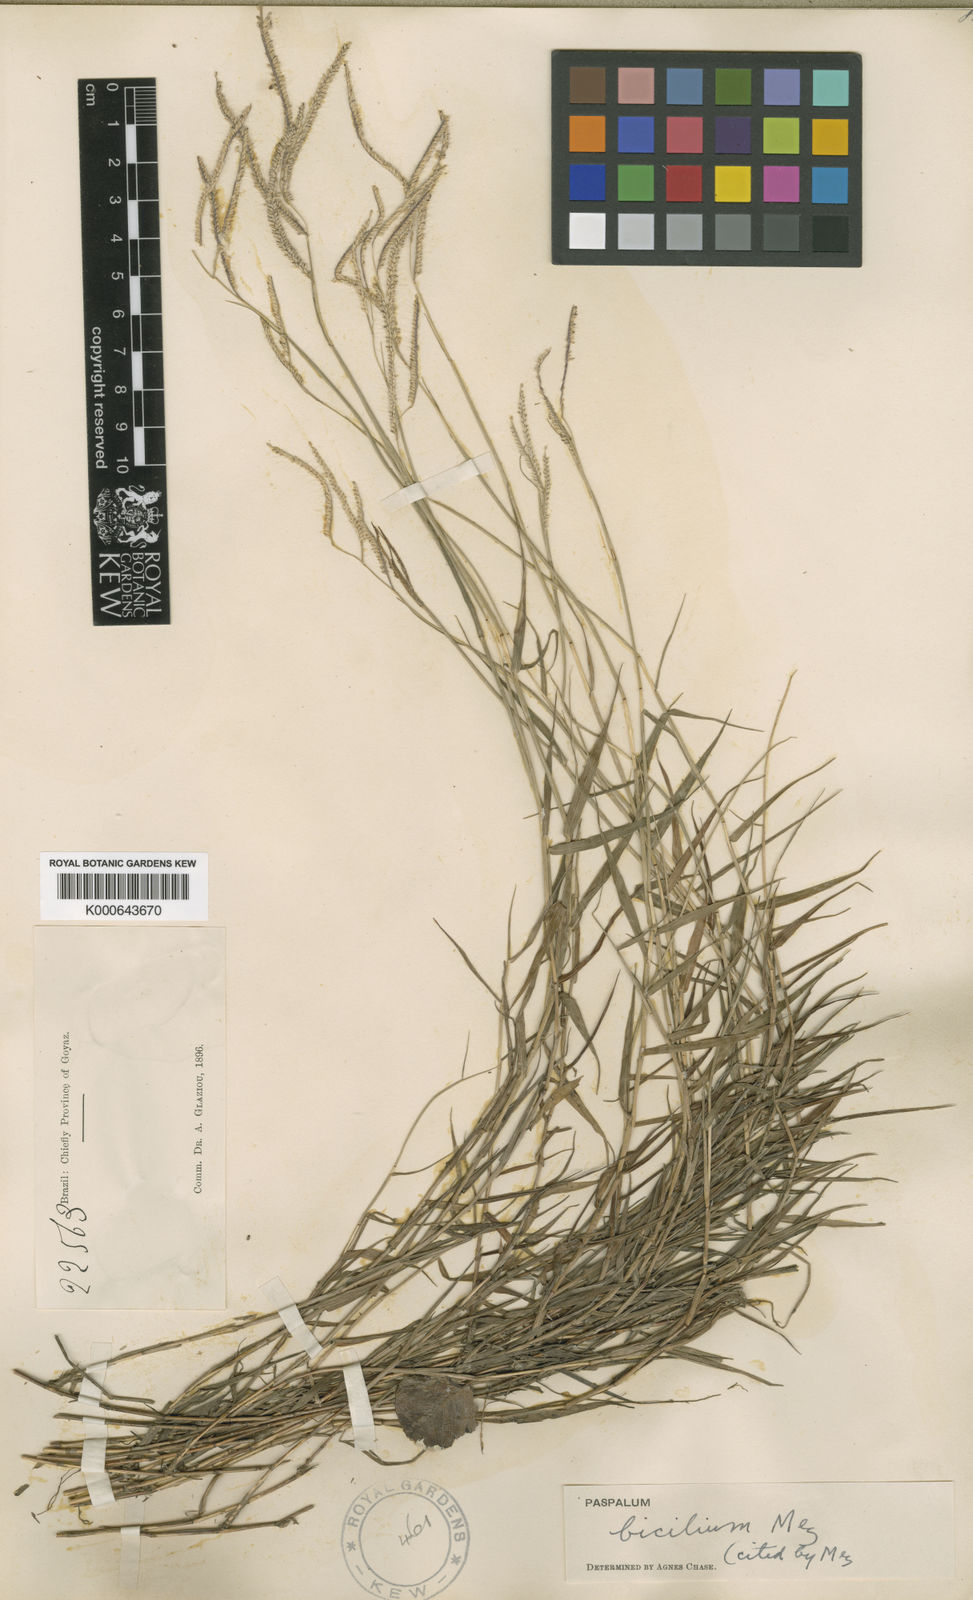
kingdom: Plantae
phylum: Tracheophyta
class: Liliopsida
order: Poales
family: Poaceae
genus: Paspalum
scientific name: Paspalum polyphyllum
